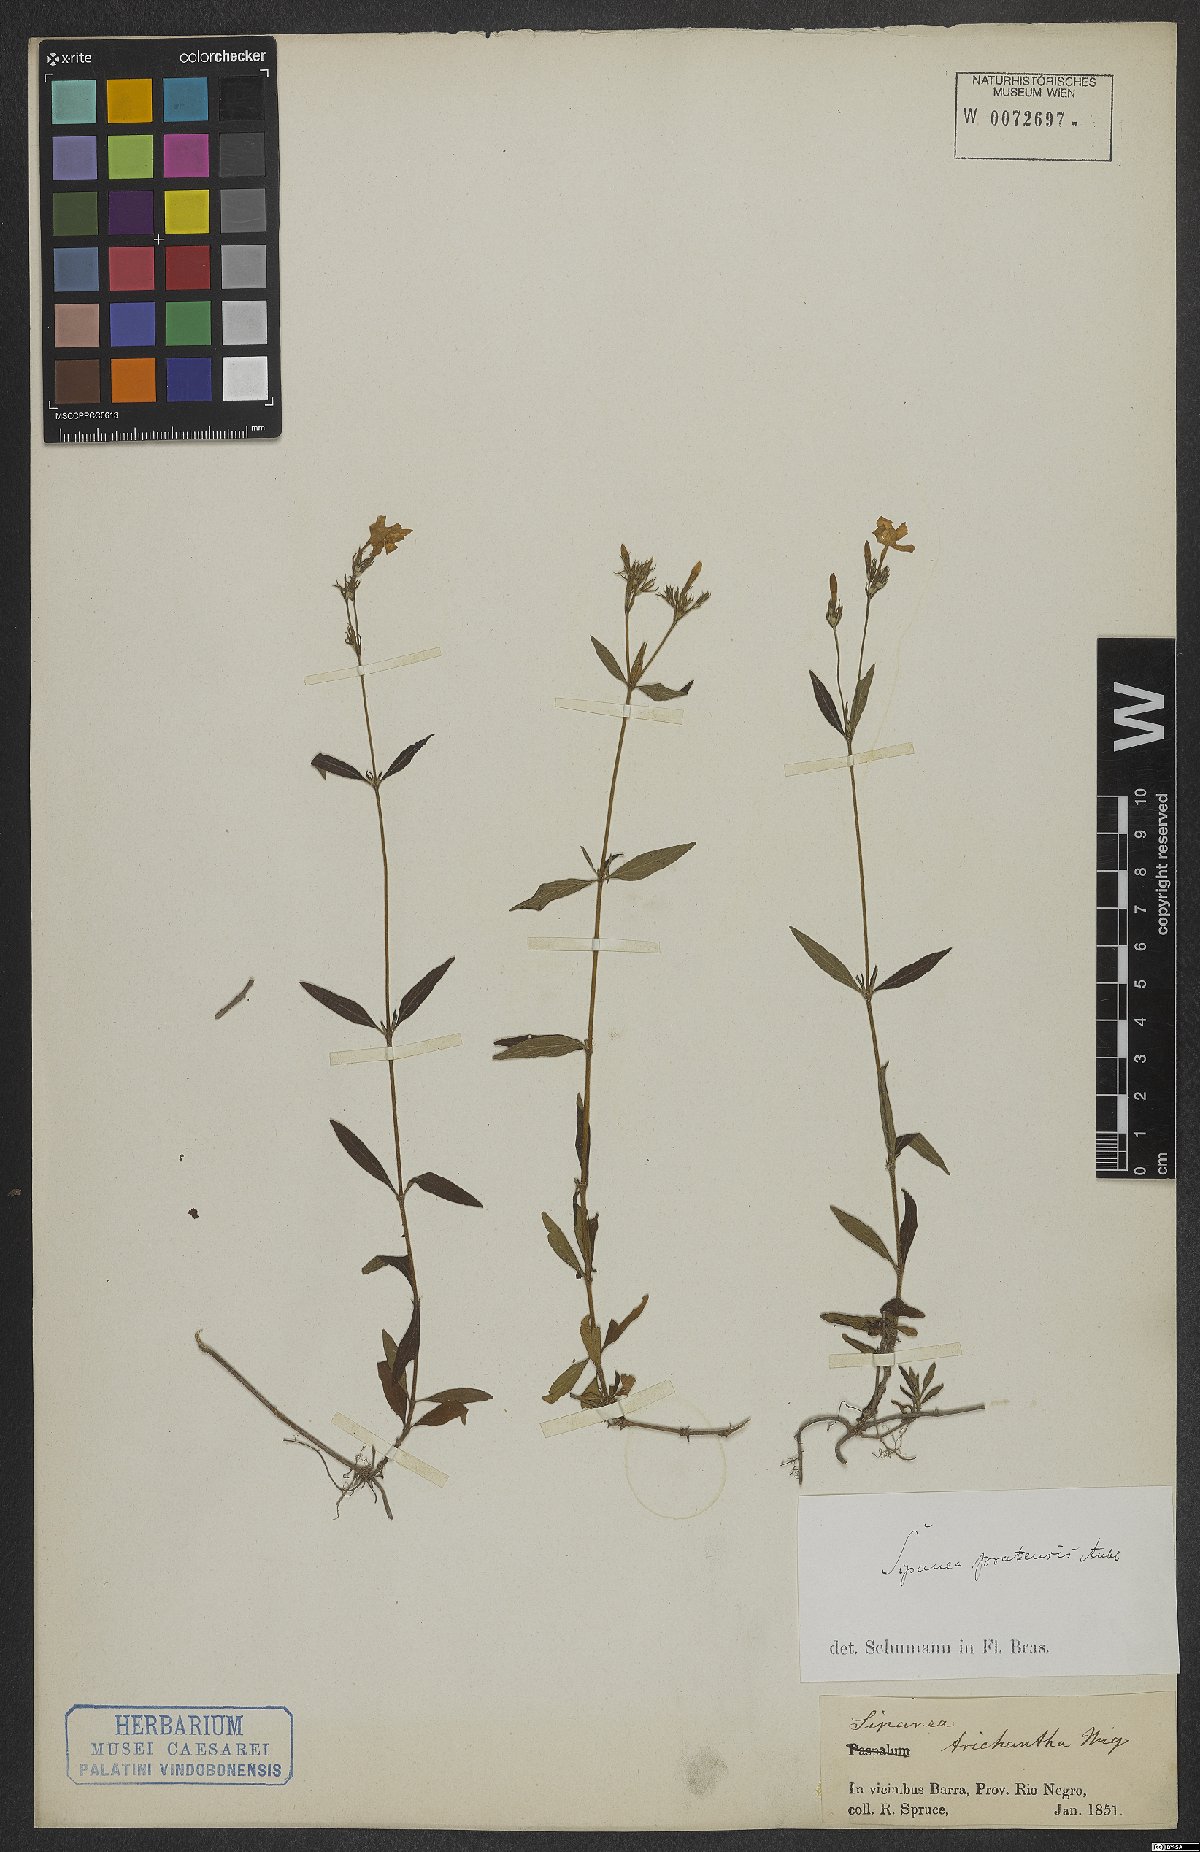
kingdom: Plantae
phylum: Tracheophyta
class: Magnoliopsida
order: Gentianales
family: Rubiaceae
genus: Sipanea
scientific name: Sipanea pratensis
